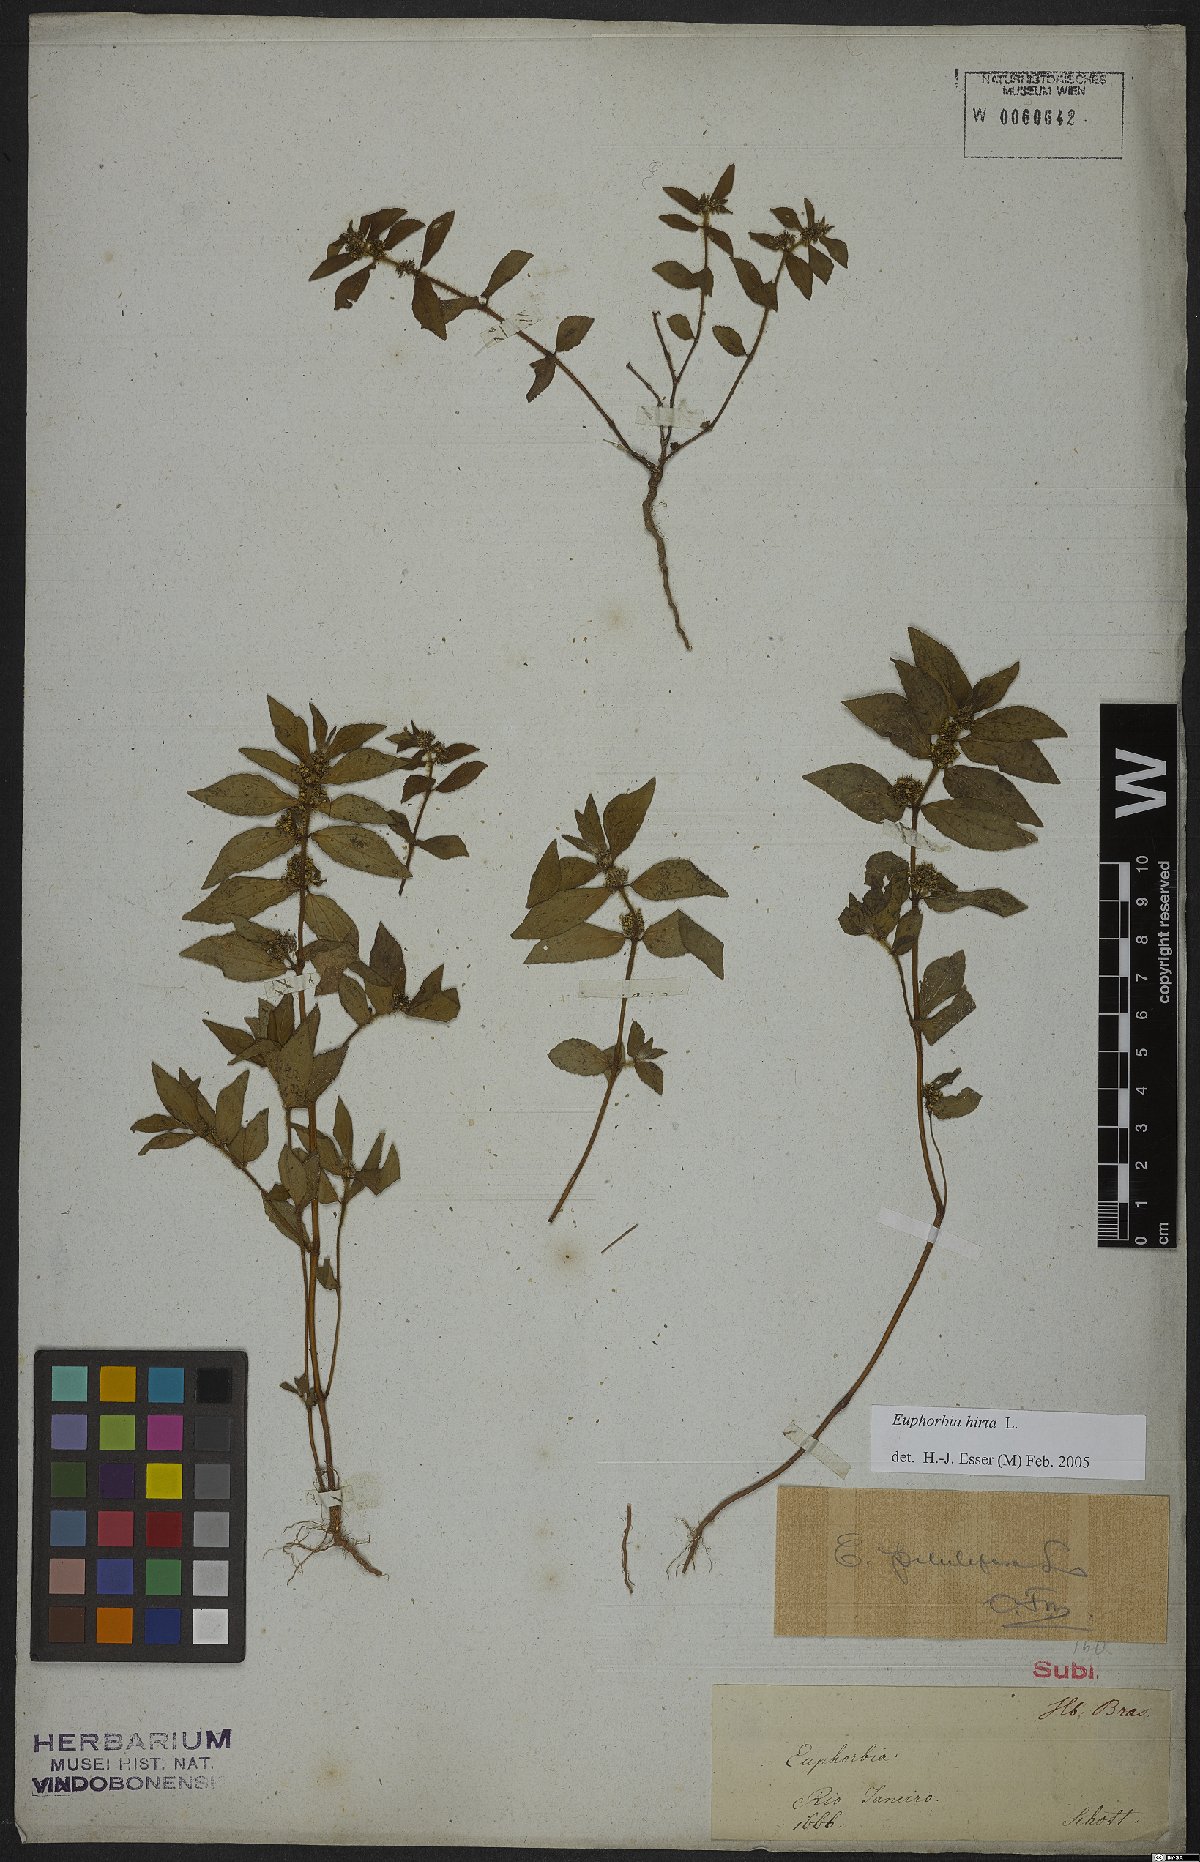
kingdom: Plantae
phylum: Tracheophyta
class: Magnoliopsida
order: Malpighiales
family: Euphorbiaceae
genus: Euphorbia
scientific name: Euphorbia hirta
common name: Pillpod sandmat
